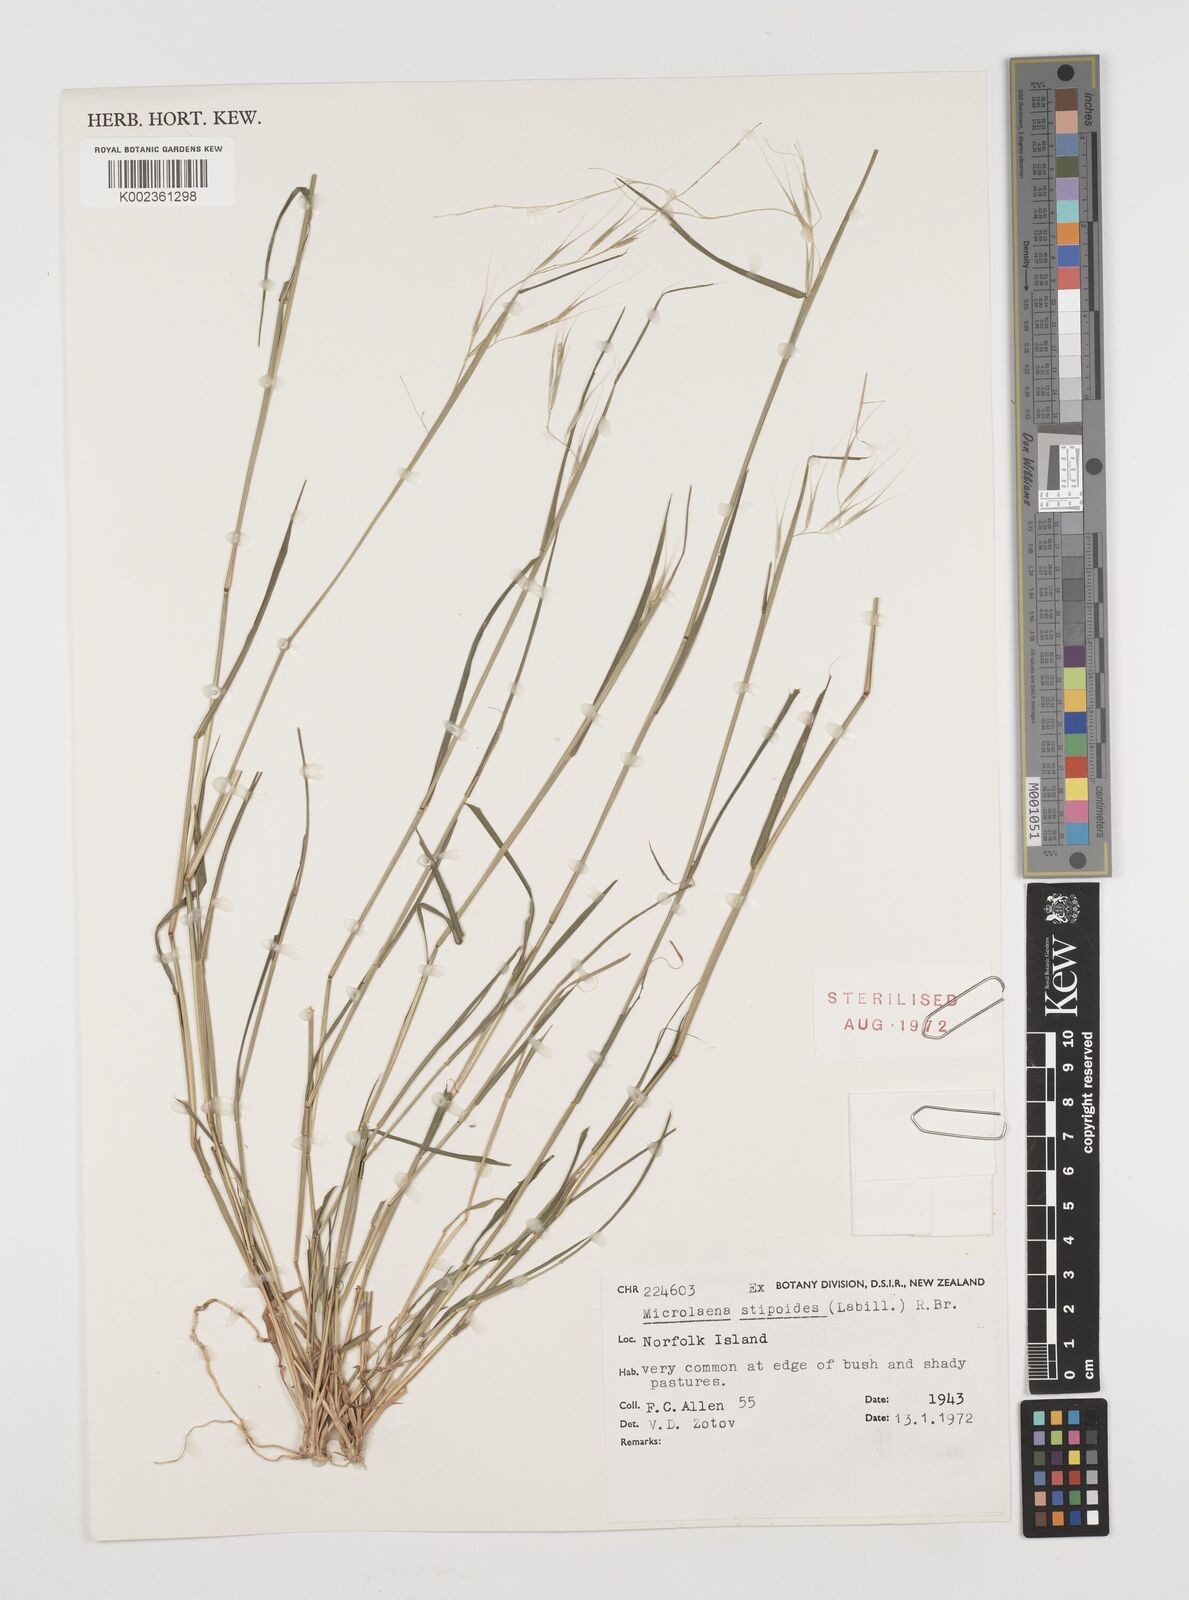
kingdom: Plantae
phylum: Tracheophyta
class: Liliopsida
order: Poales
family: Poaceae
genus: Microlaena
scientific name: Microlaena stipoides
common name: Meadow ricegrass
